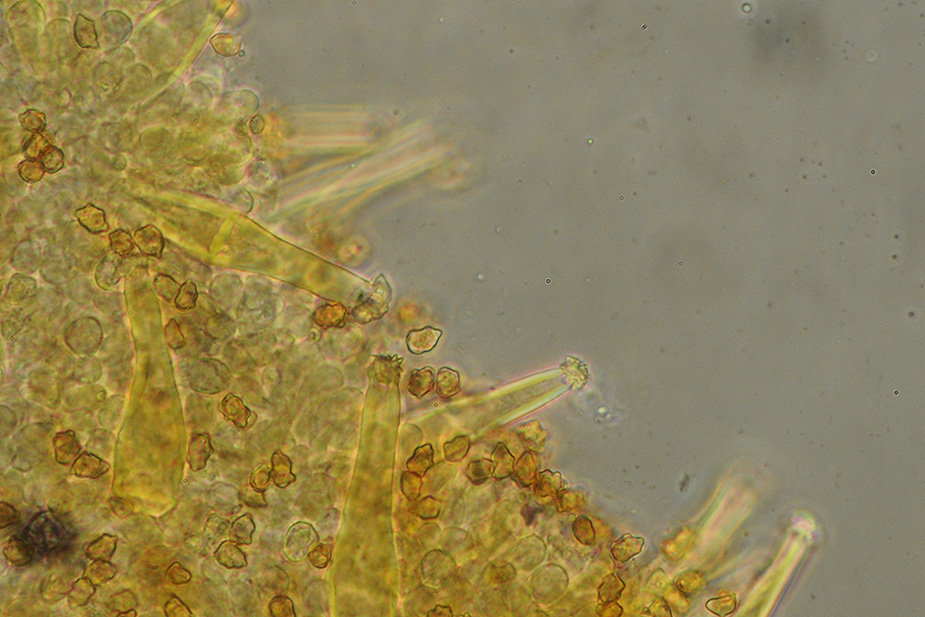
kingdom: Fungi
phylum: Basidiomycota
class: Agaricomycetes
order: Agaricales
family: Inocybaceae
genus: Inocybe
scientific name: Inocybe petiginosa
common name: liden trævlhat
